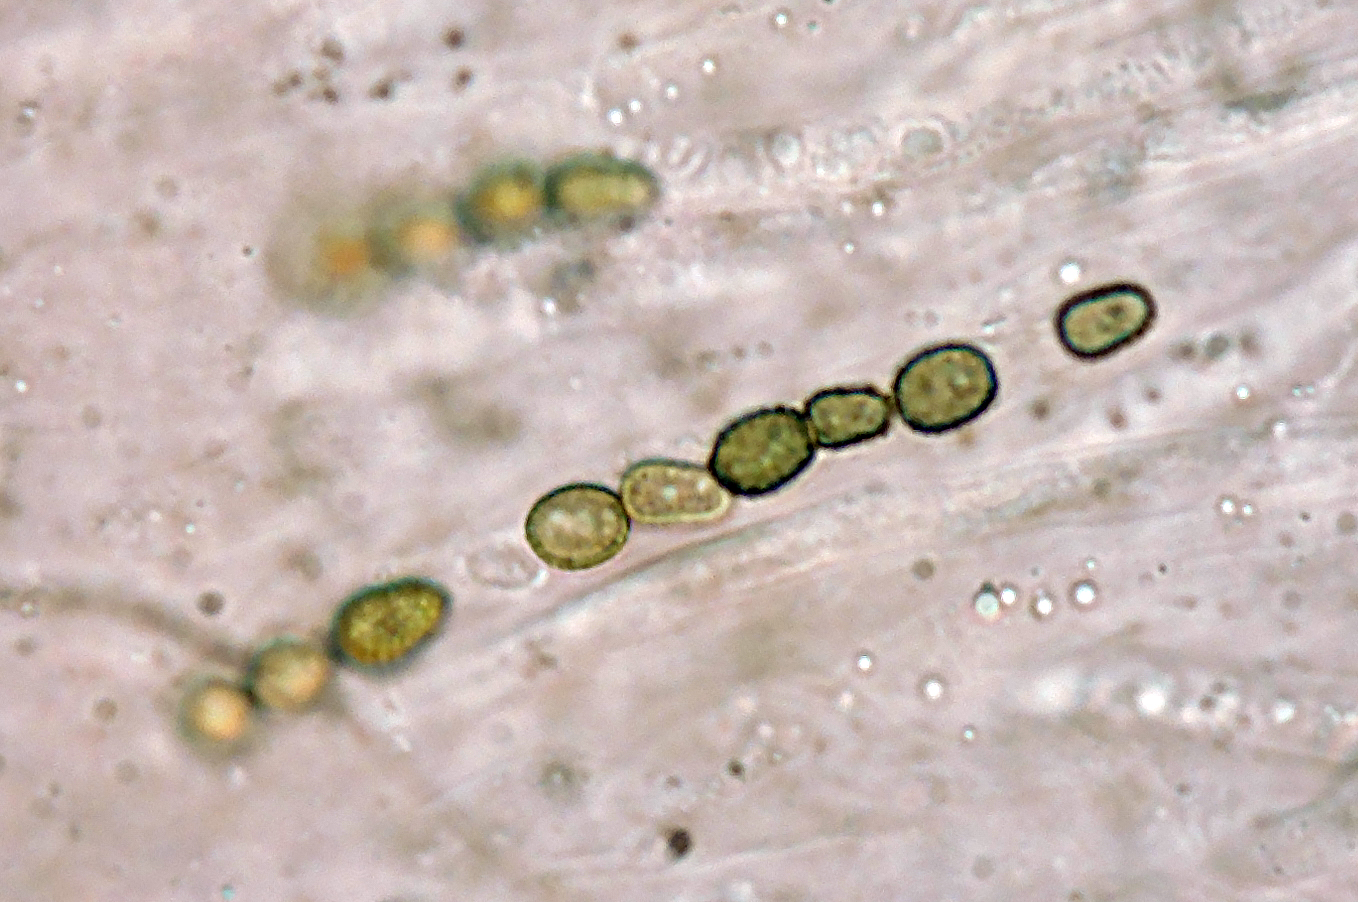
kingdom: Fungi
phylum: Ascomycota
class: Sordariomycetes
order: Hypocreales
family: Hypocreaceae
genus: Trichoderma
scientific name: Trichoderma atrobrunneum
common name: grønsort kødkerne
